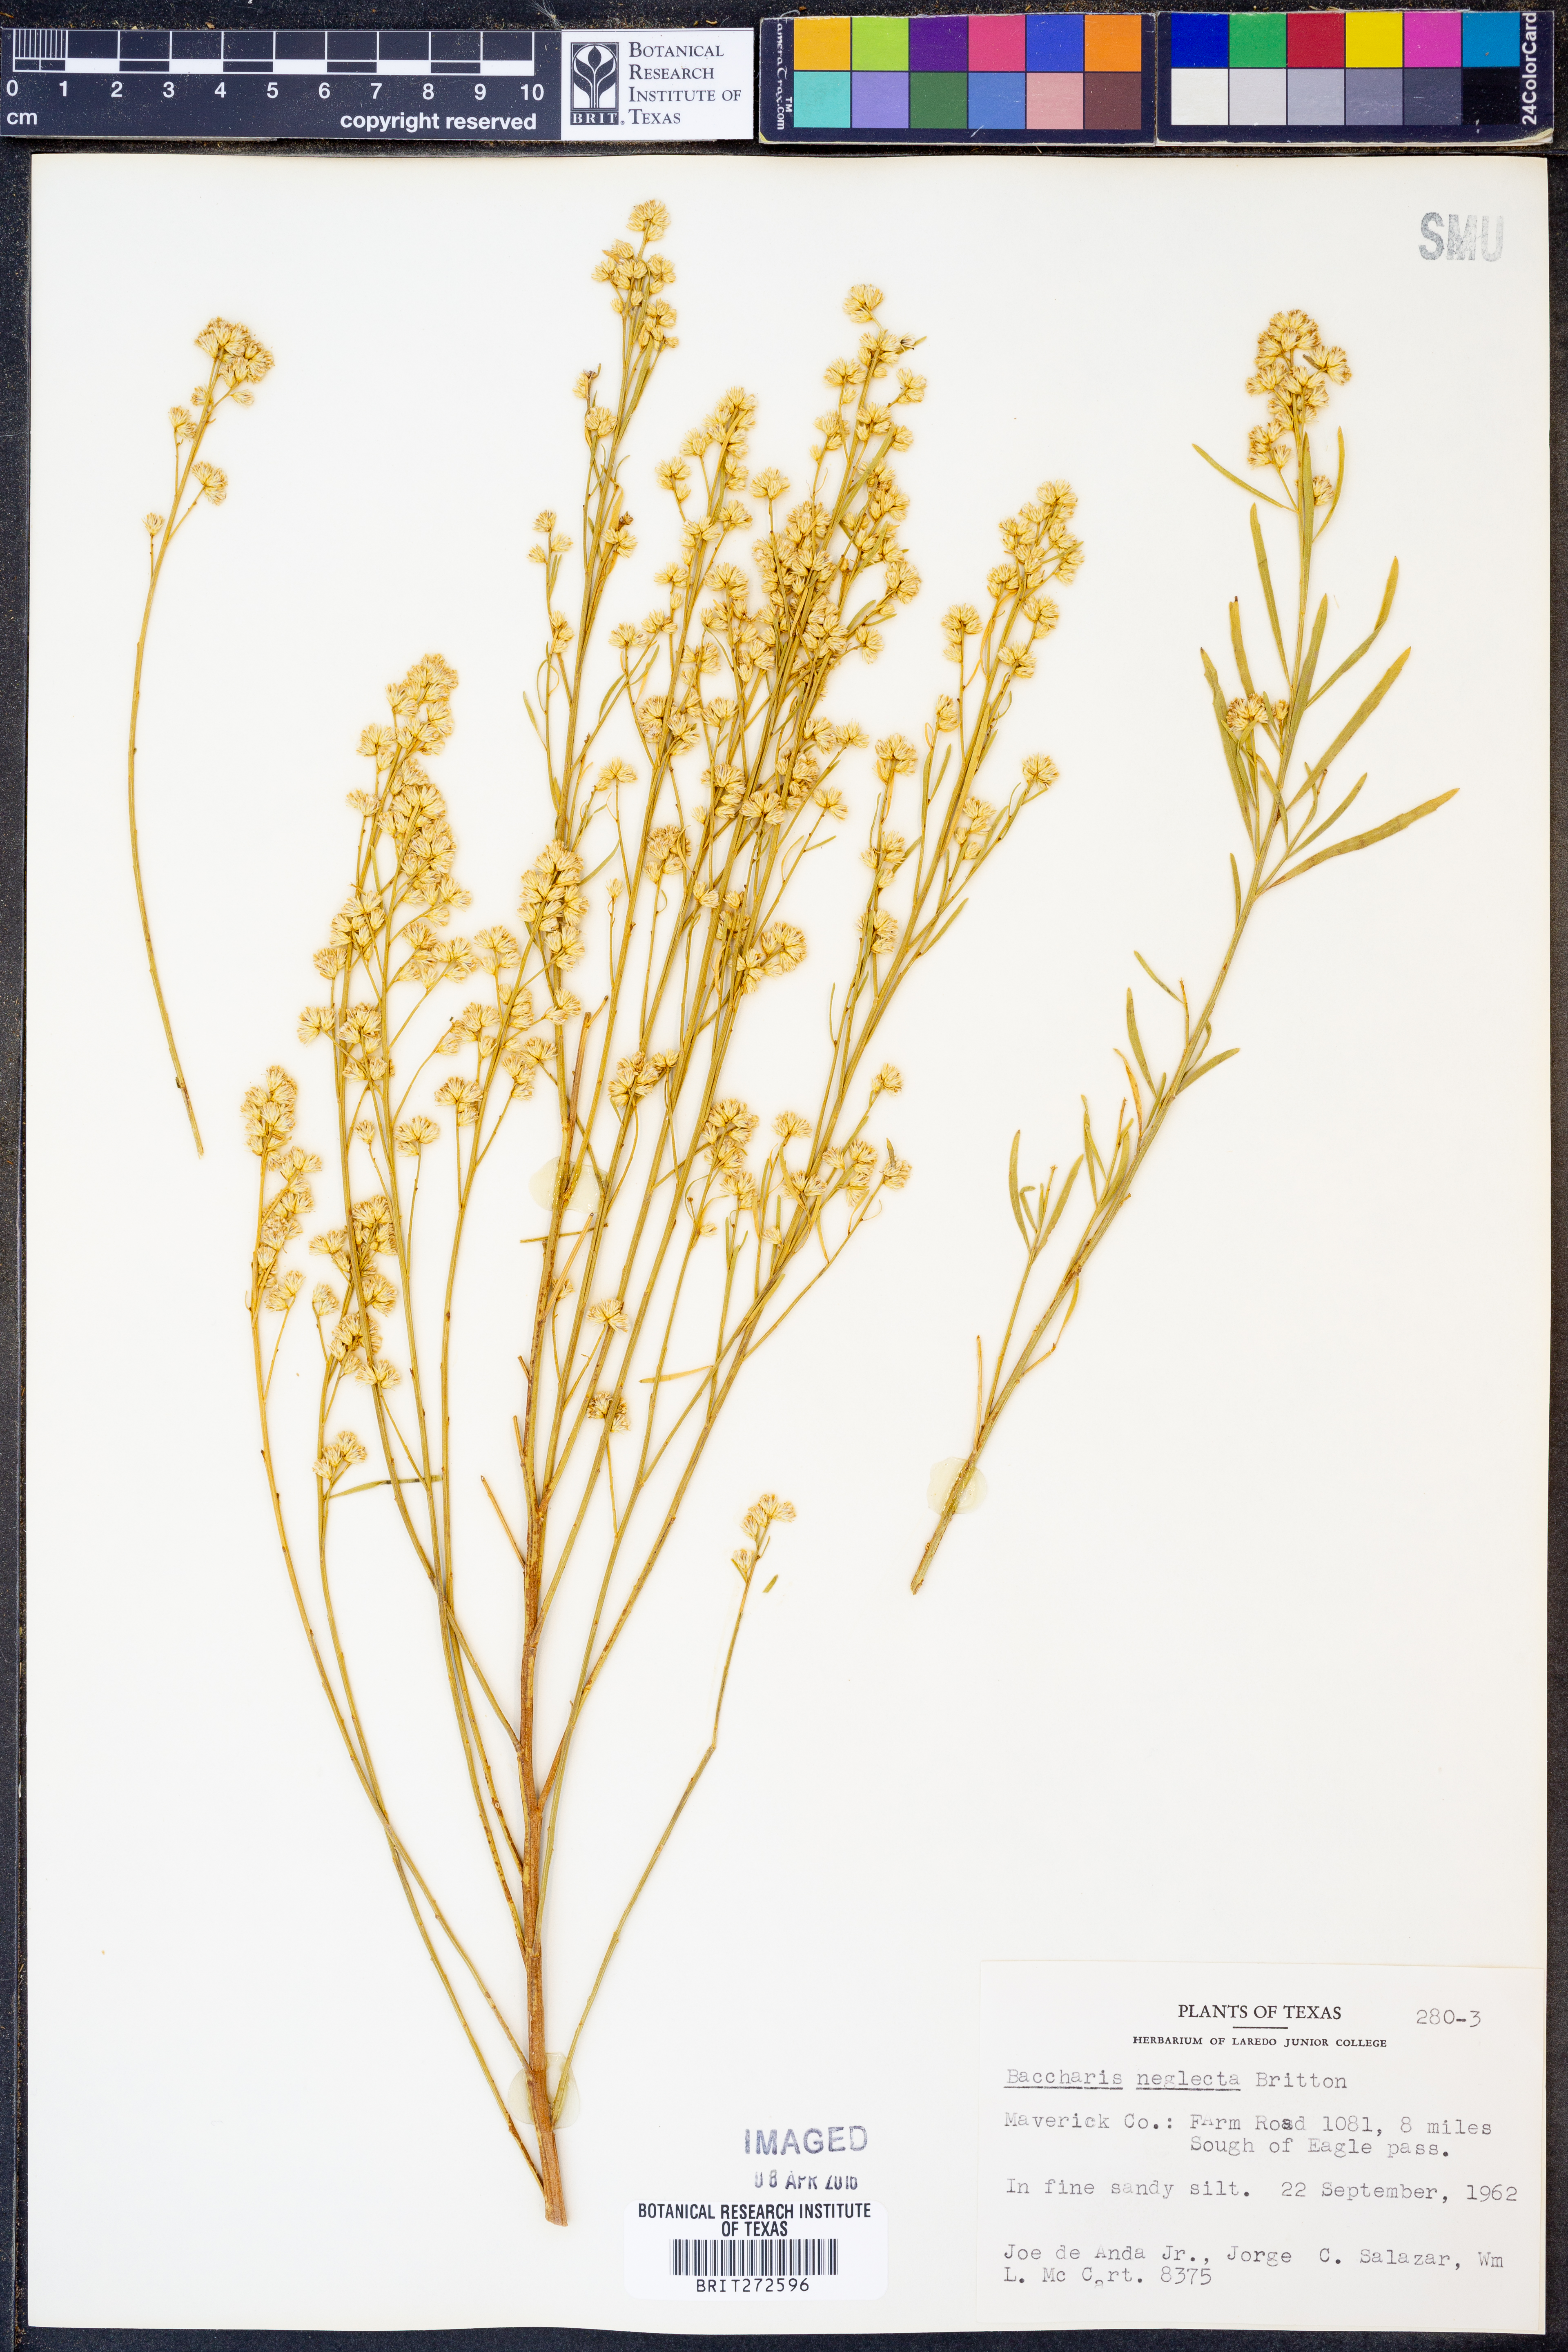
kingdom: Plantae
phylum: Tracheophyta
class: Magnoliopsida
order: Asterales
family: Asteraceae
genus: Baccharis
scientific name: Baccharis neglecta
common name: Roosevelt-weed
